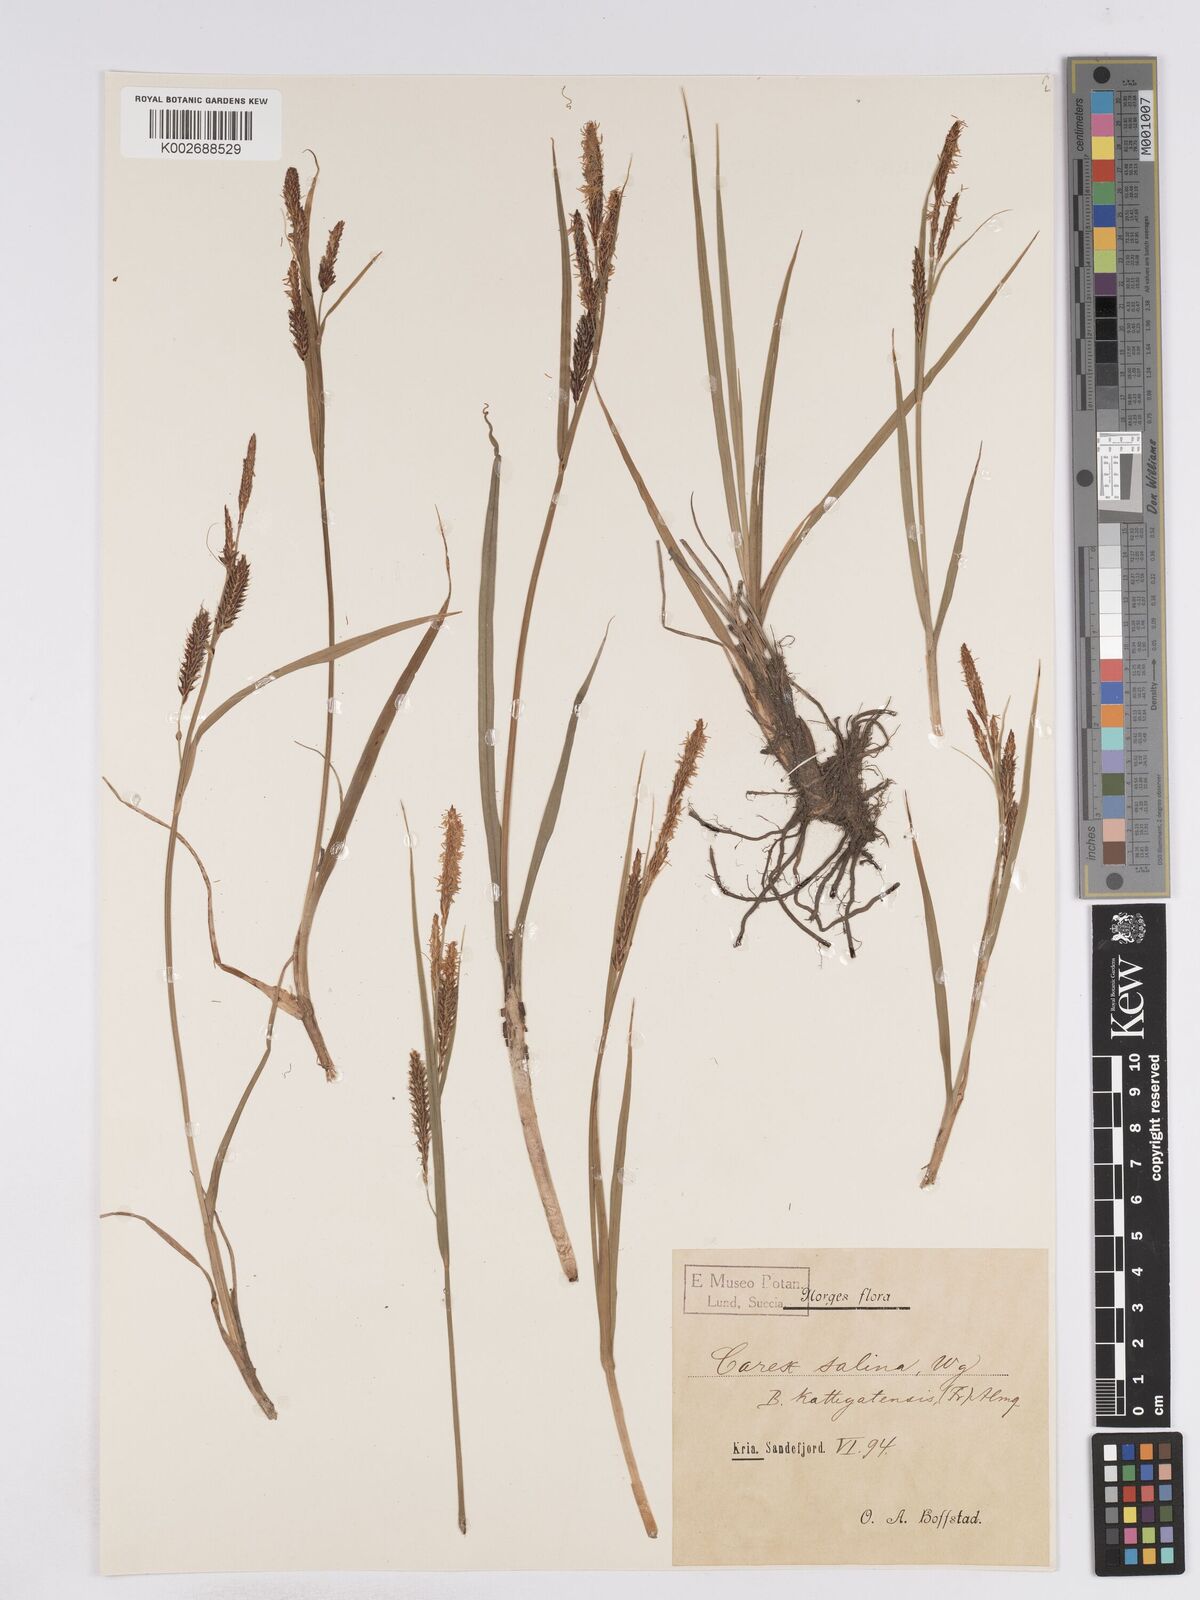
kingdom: Plantae
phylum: Tracheophyta
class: Liliopsida
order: Poales
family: Cyperaceae
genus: Carex
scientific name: Carex recta
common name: Estuarine sedge
